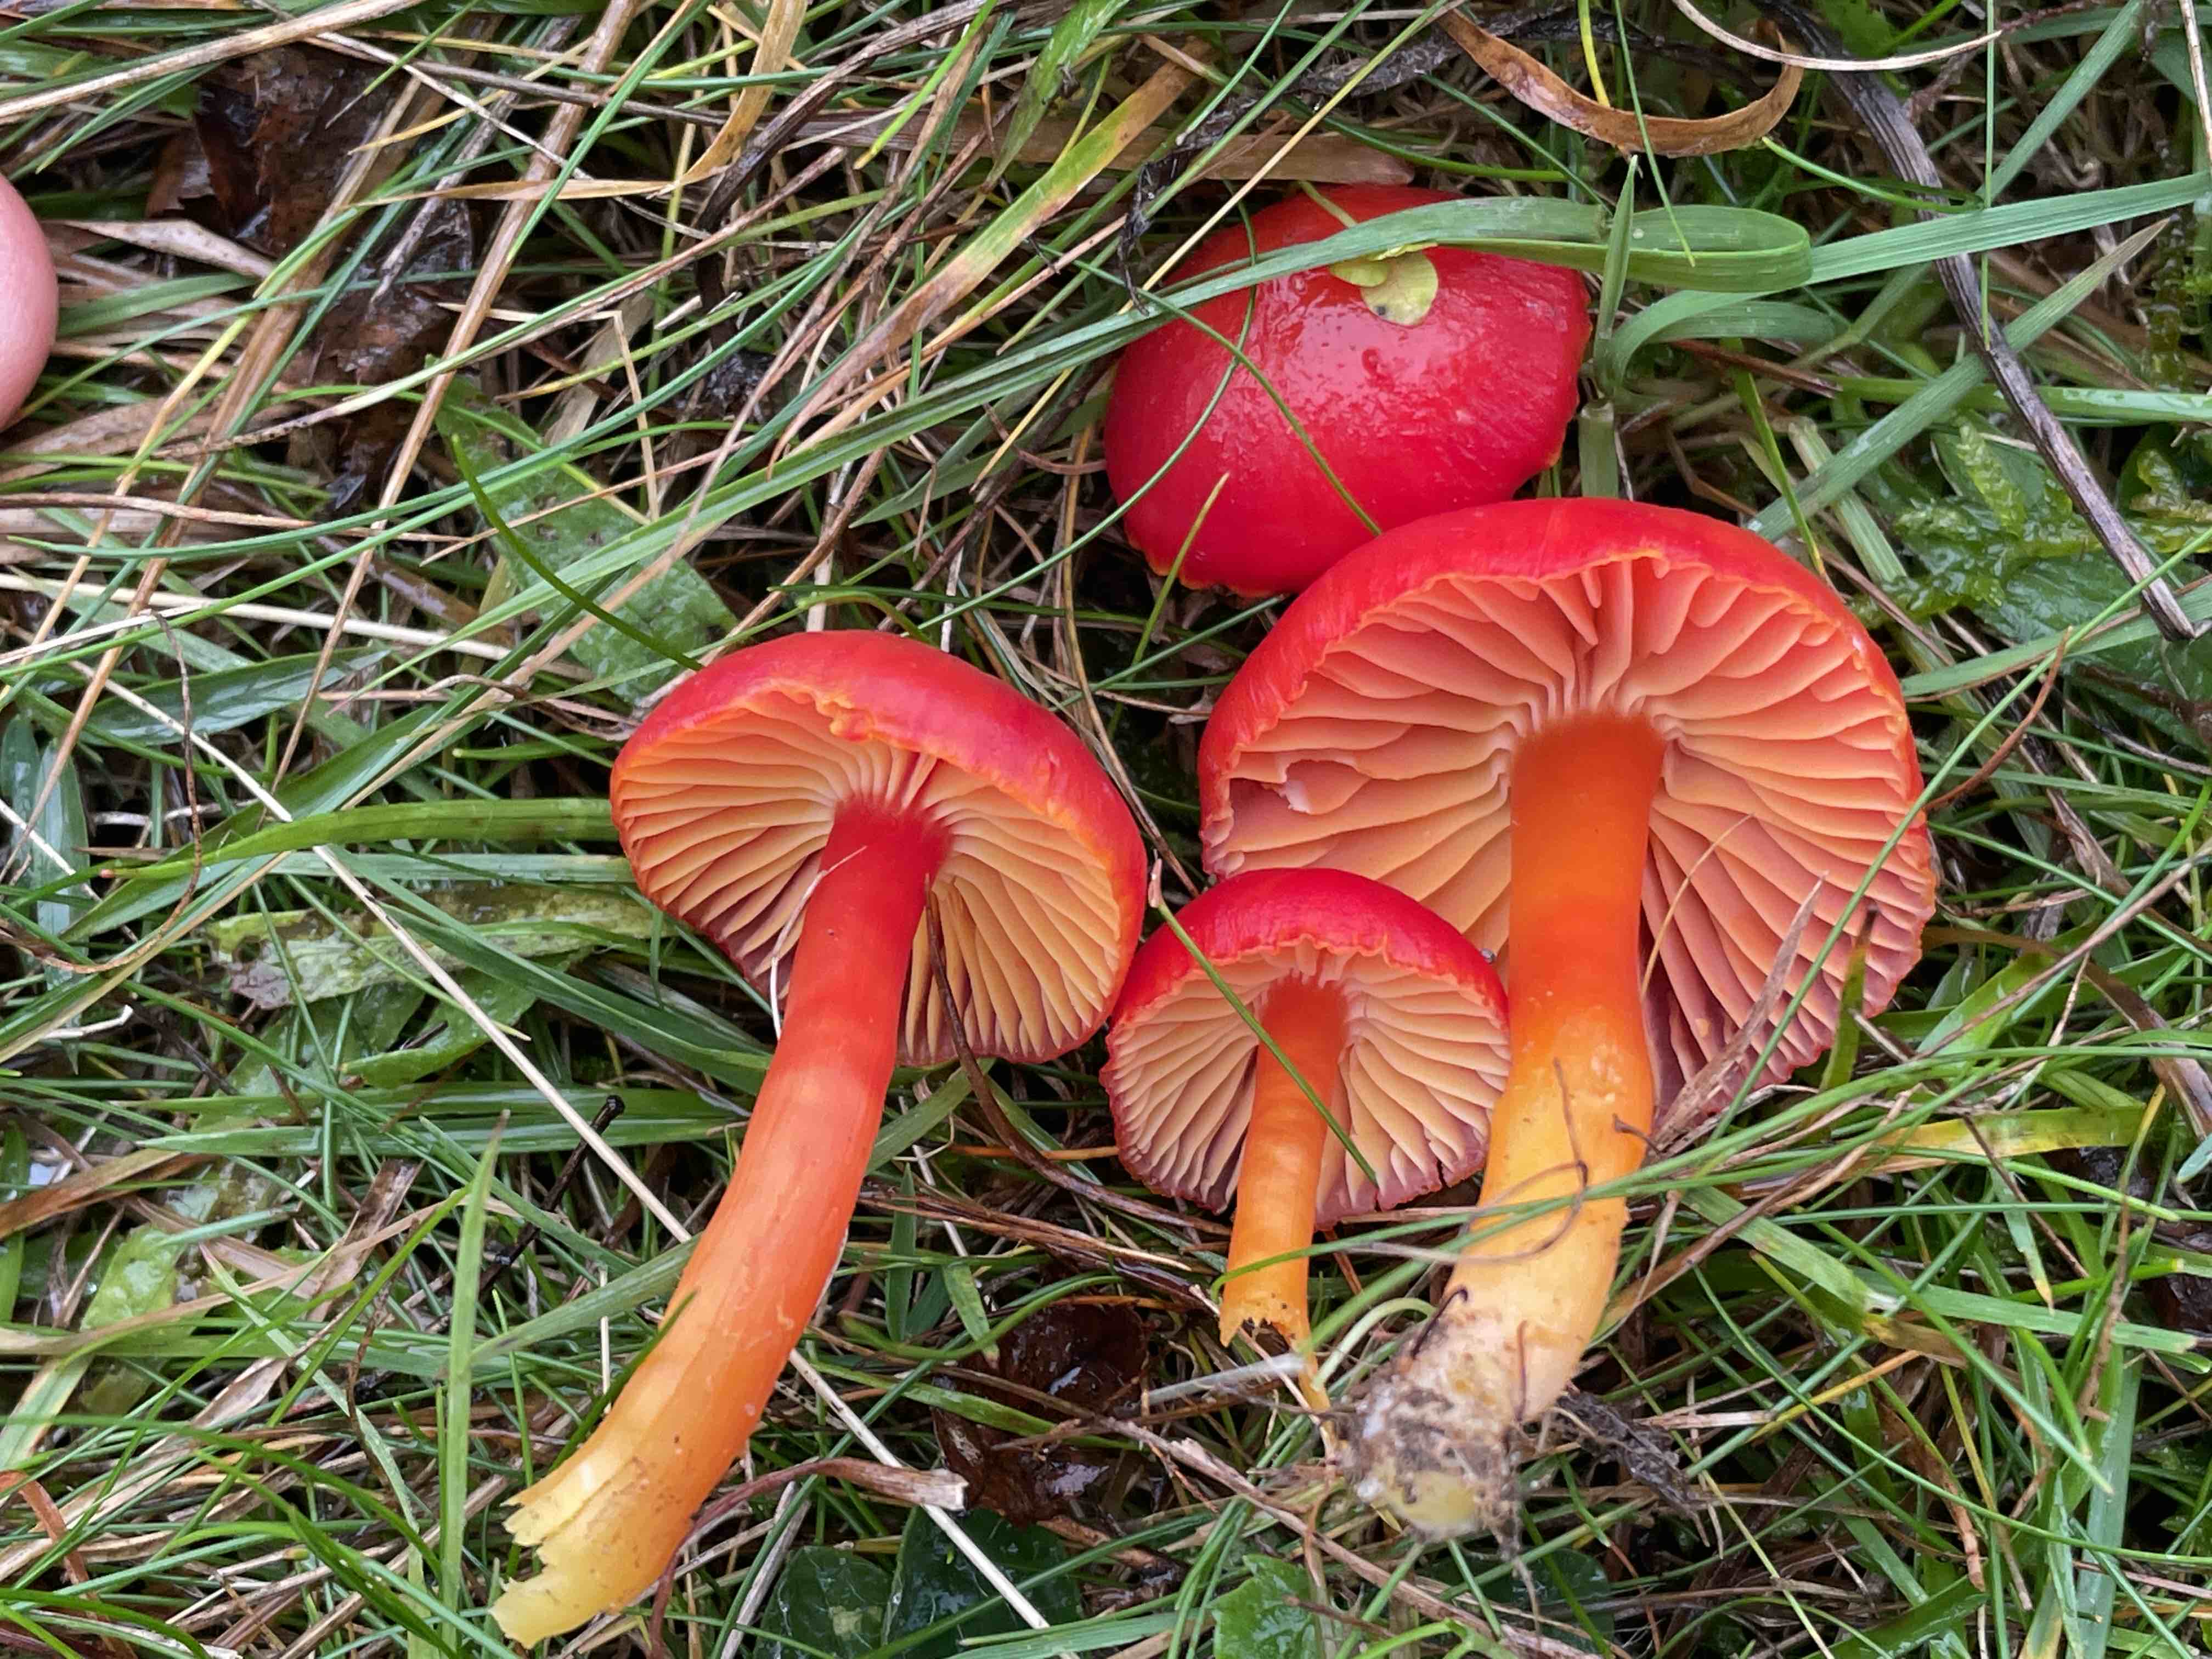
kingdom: Fungi
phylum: Basidiomycota
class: Agaricomycetes
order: Agaricales
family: Hygrophoraceae
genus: Hygrocybe
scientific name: Hygrocybe coccinea
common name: cinnober-vokshat
